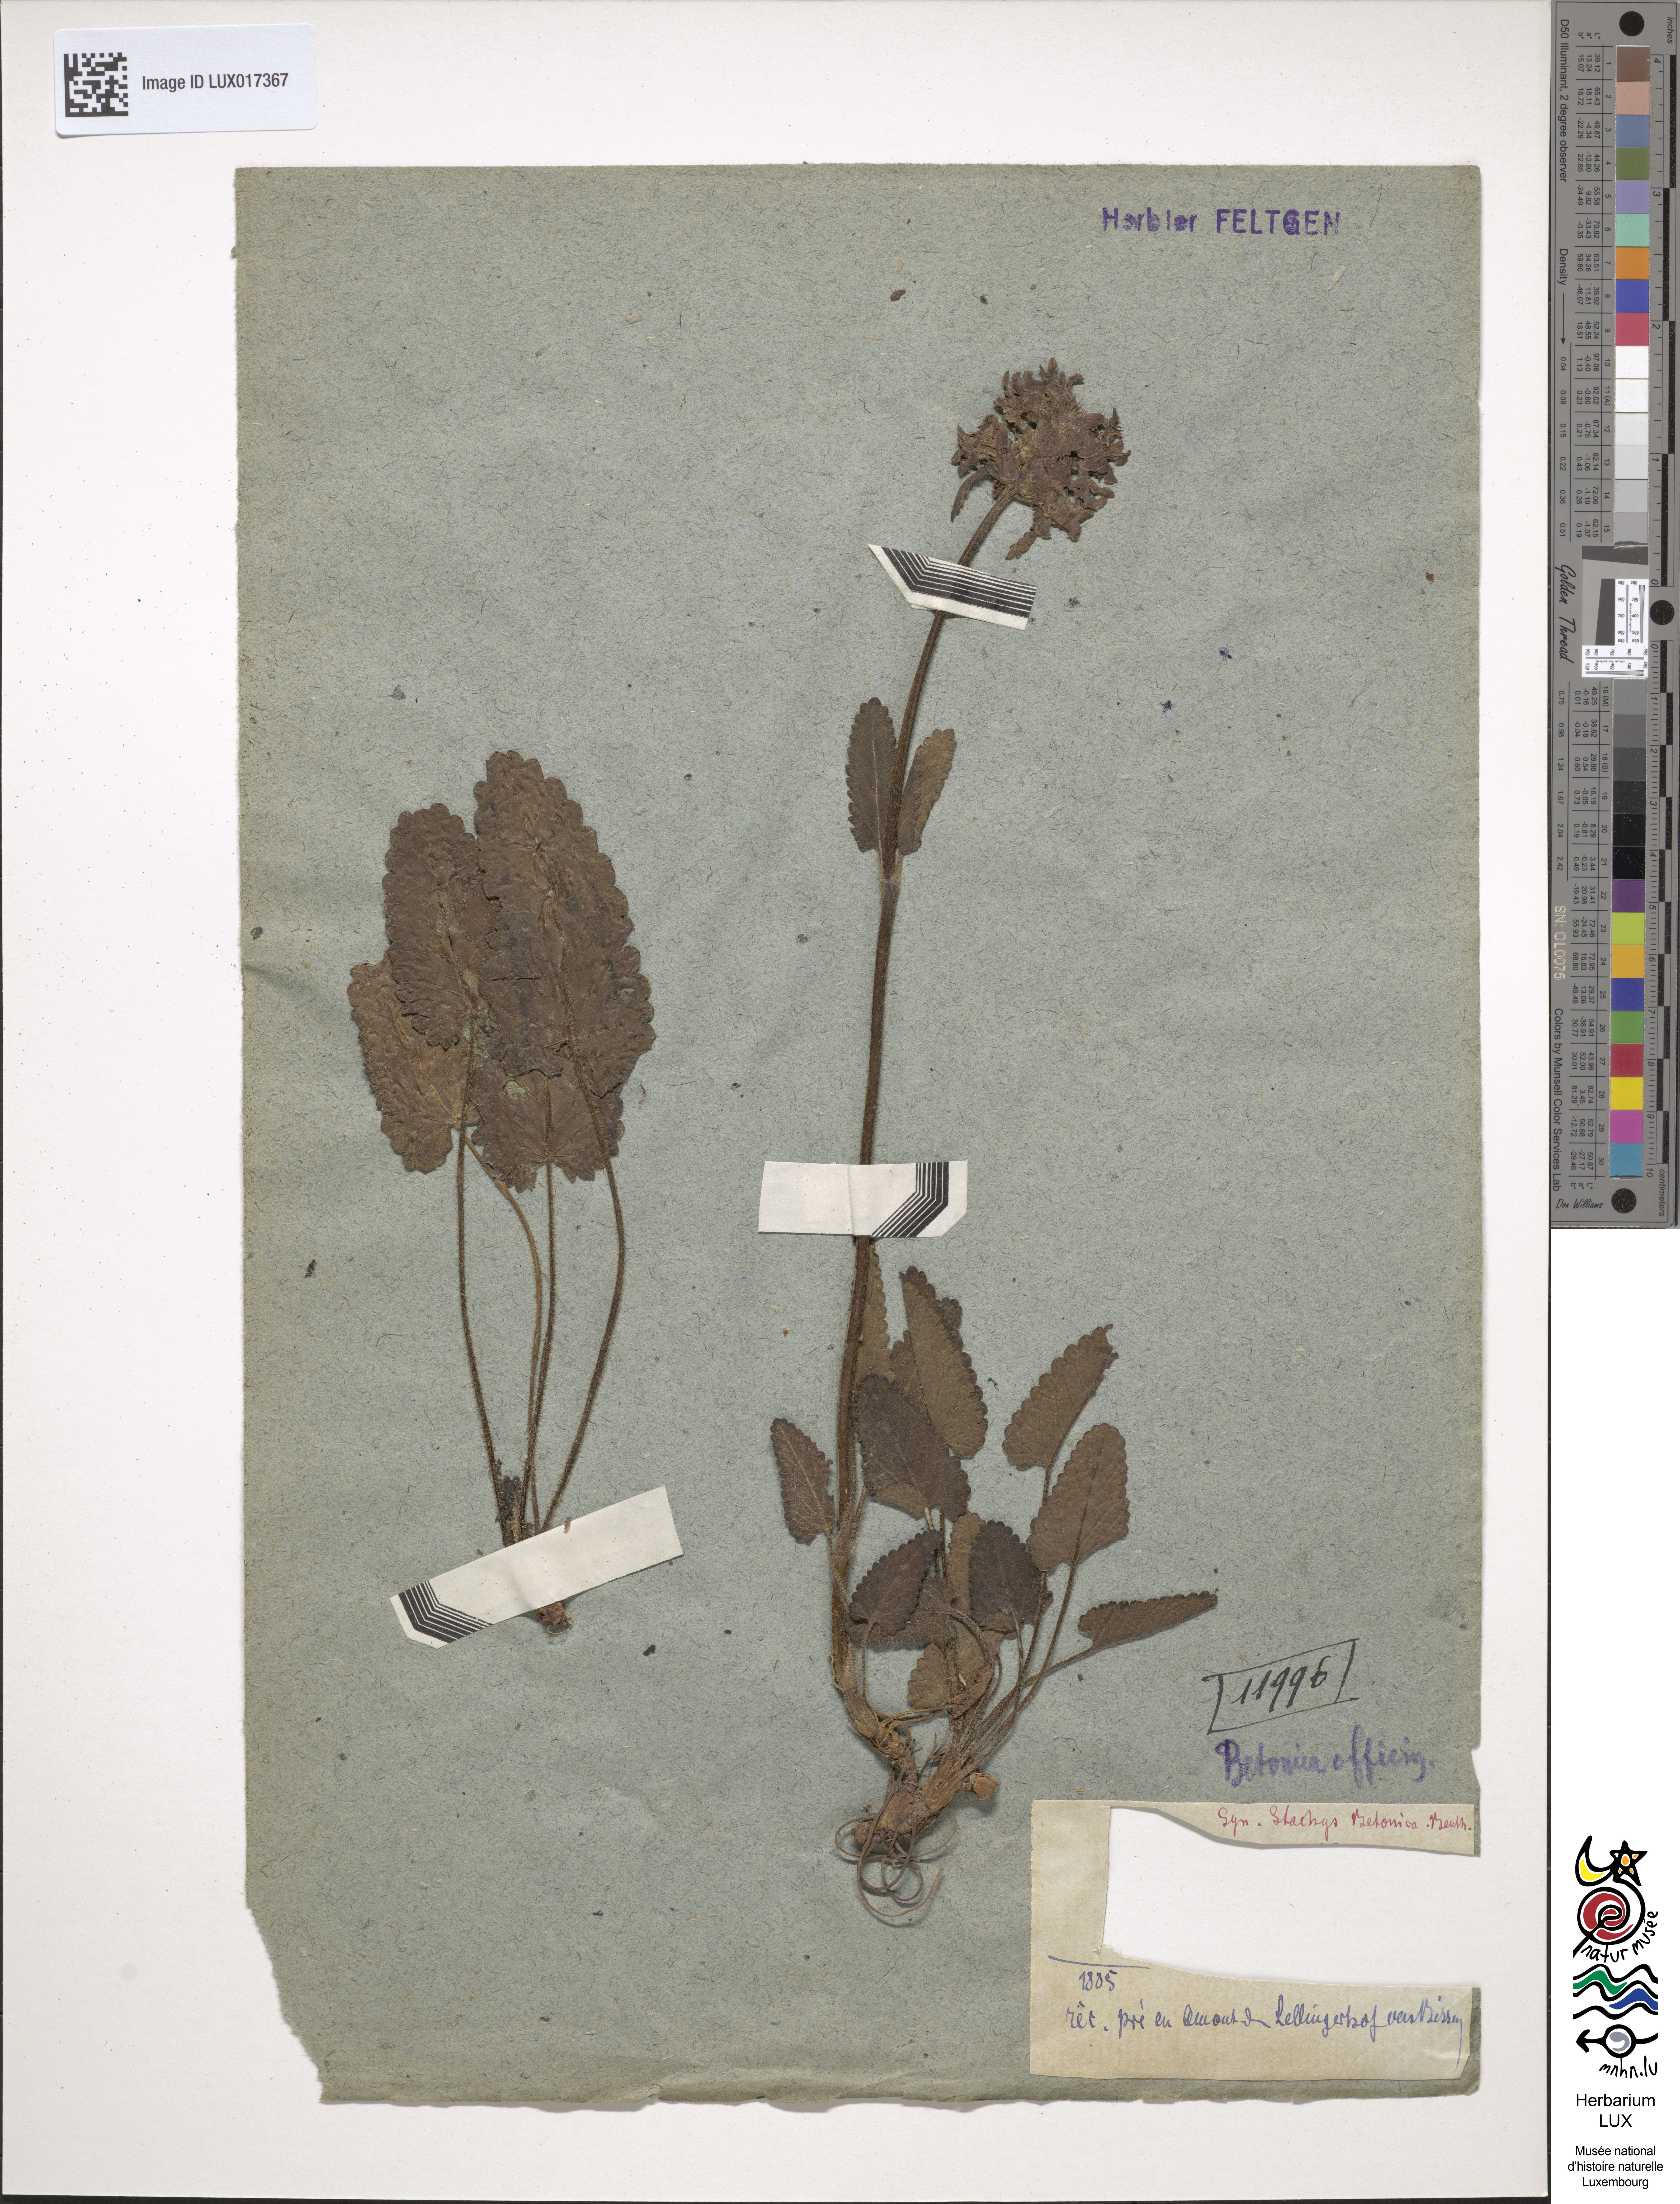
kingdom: Plantae
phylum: Tracheophyta
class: Magnoliopsida
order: Lamiales
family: Lamiaceae
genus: Betonica
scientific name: Betonica officinalis
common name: Bishop's-wort
